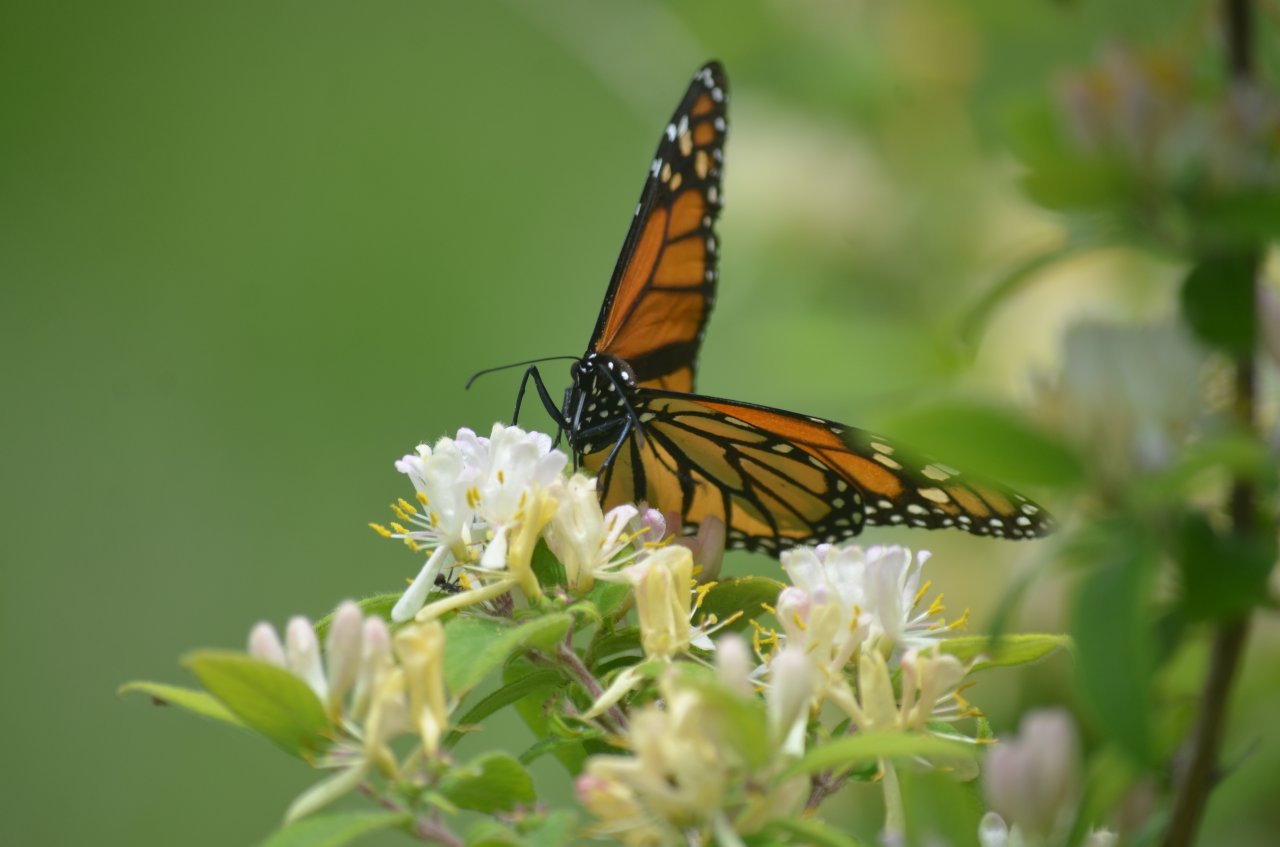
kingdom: Animalia
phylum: Arthropoda
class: Insecta
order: Lepidoptera
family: Nymphalidae
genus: Danaus
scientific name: Danaus plexippus
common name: Monarch
